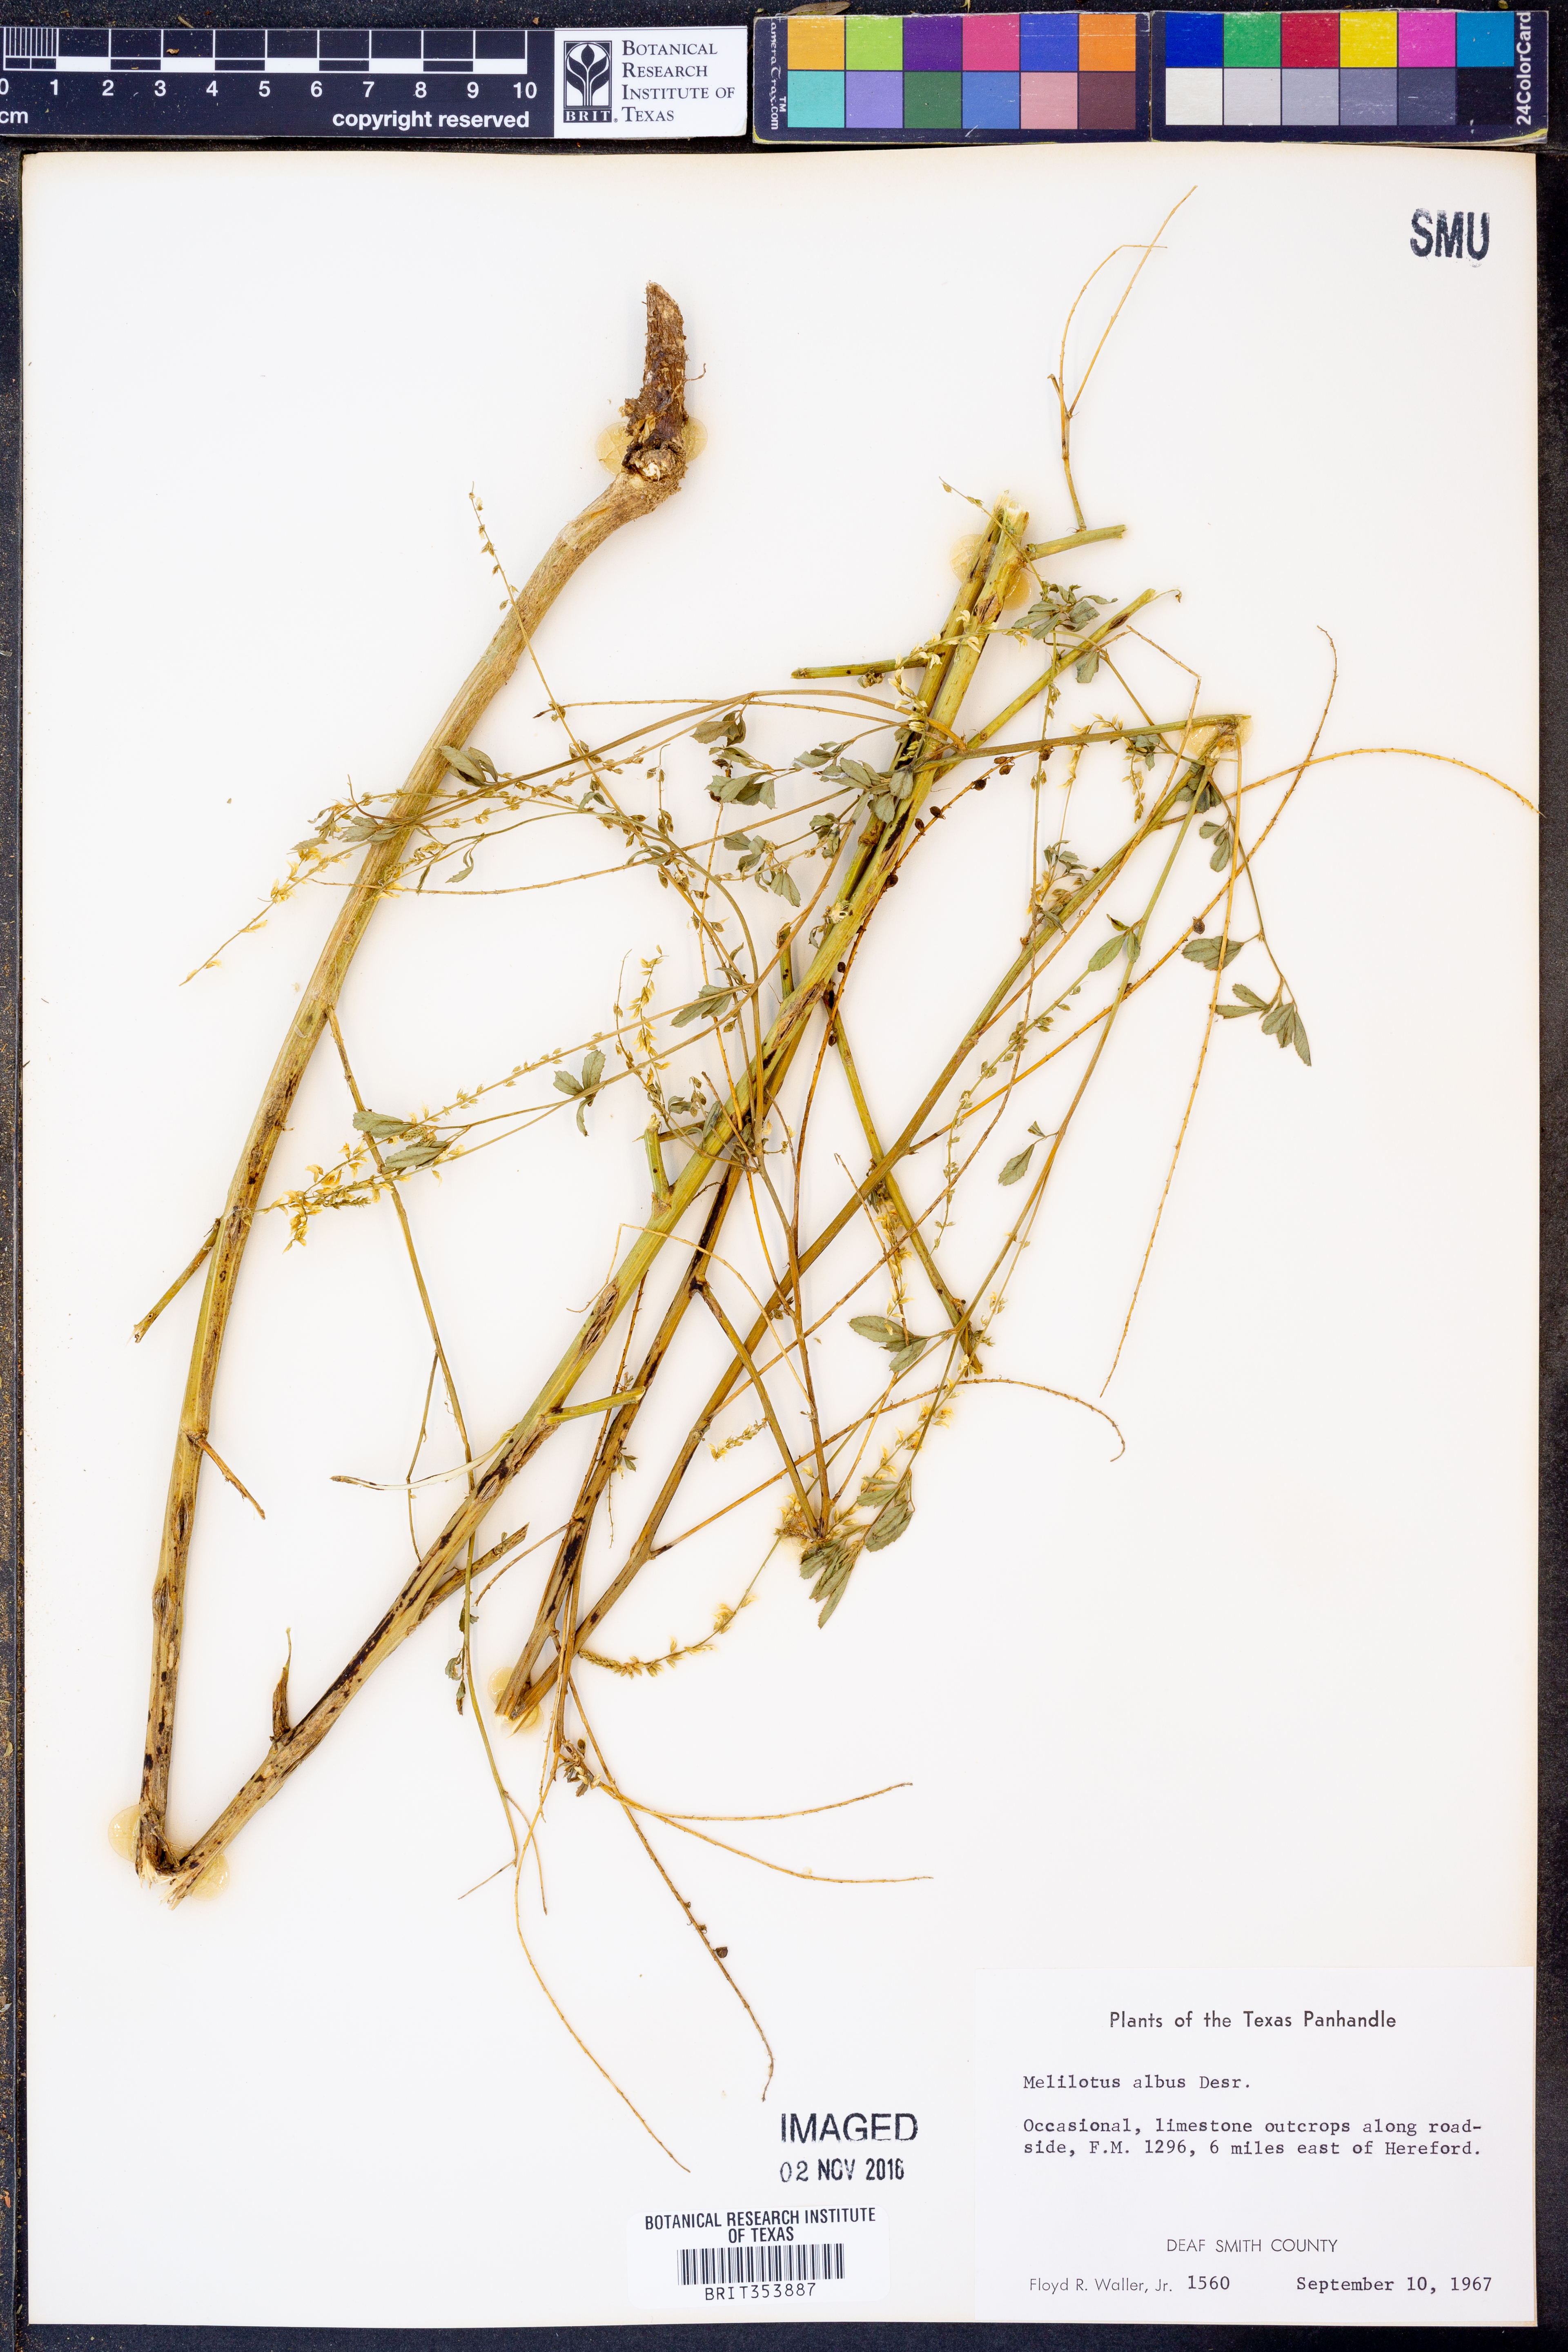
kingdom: Plantae
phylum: Tracheophyta
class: Magnoliopsida
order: Fabales
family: Fabaceae
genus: Melilotus
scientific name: Melilotus albus
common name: White melilot
